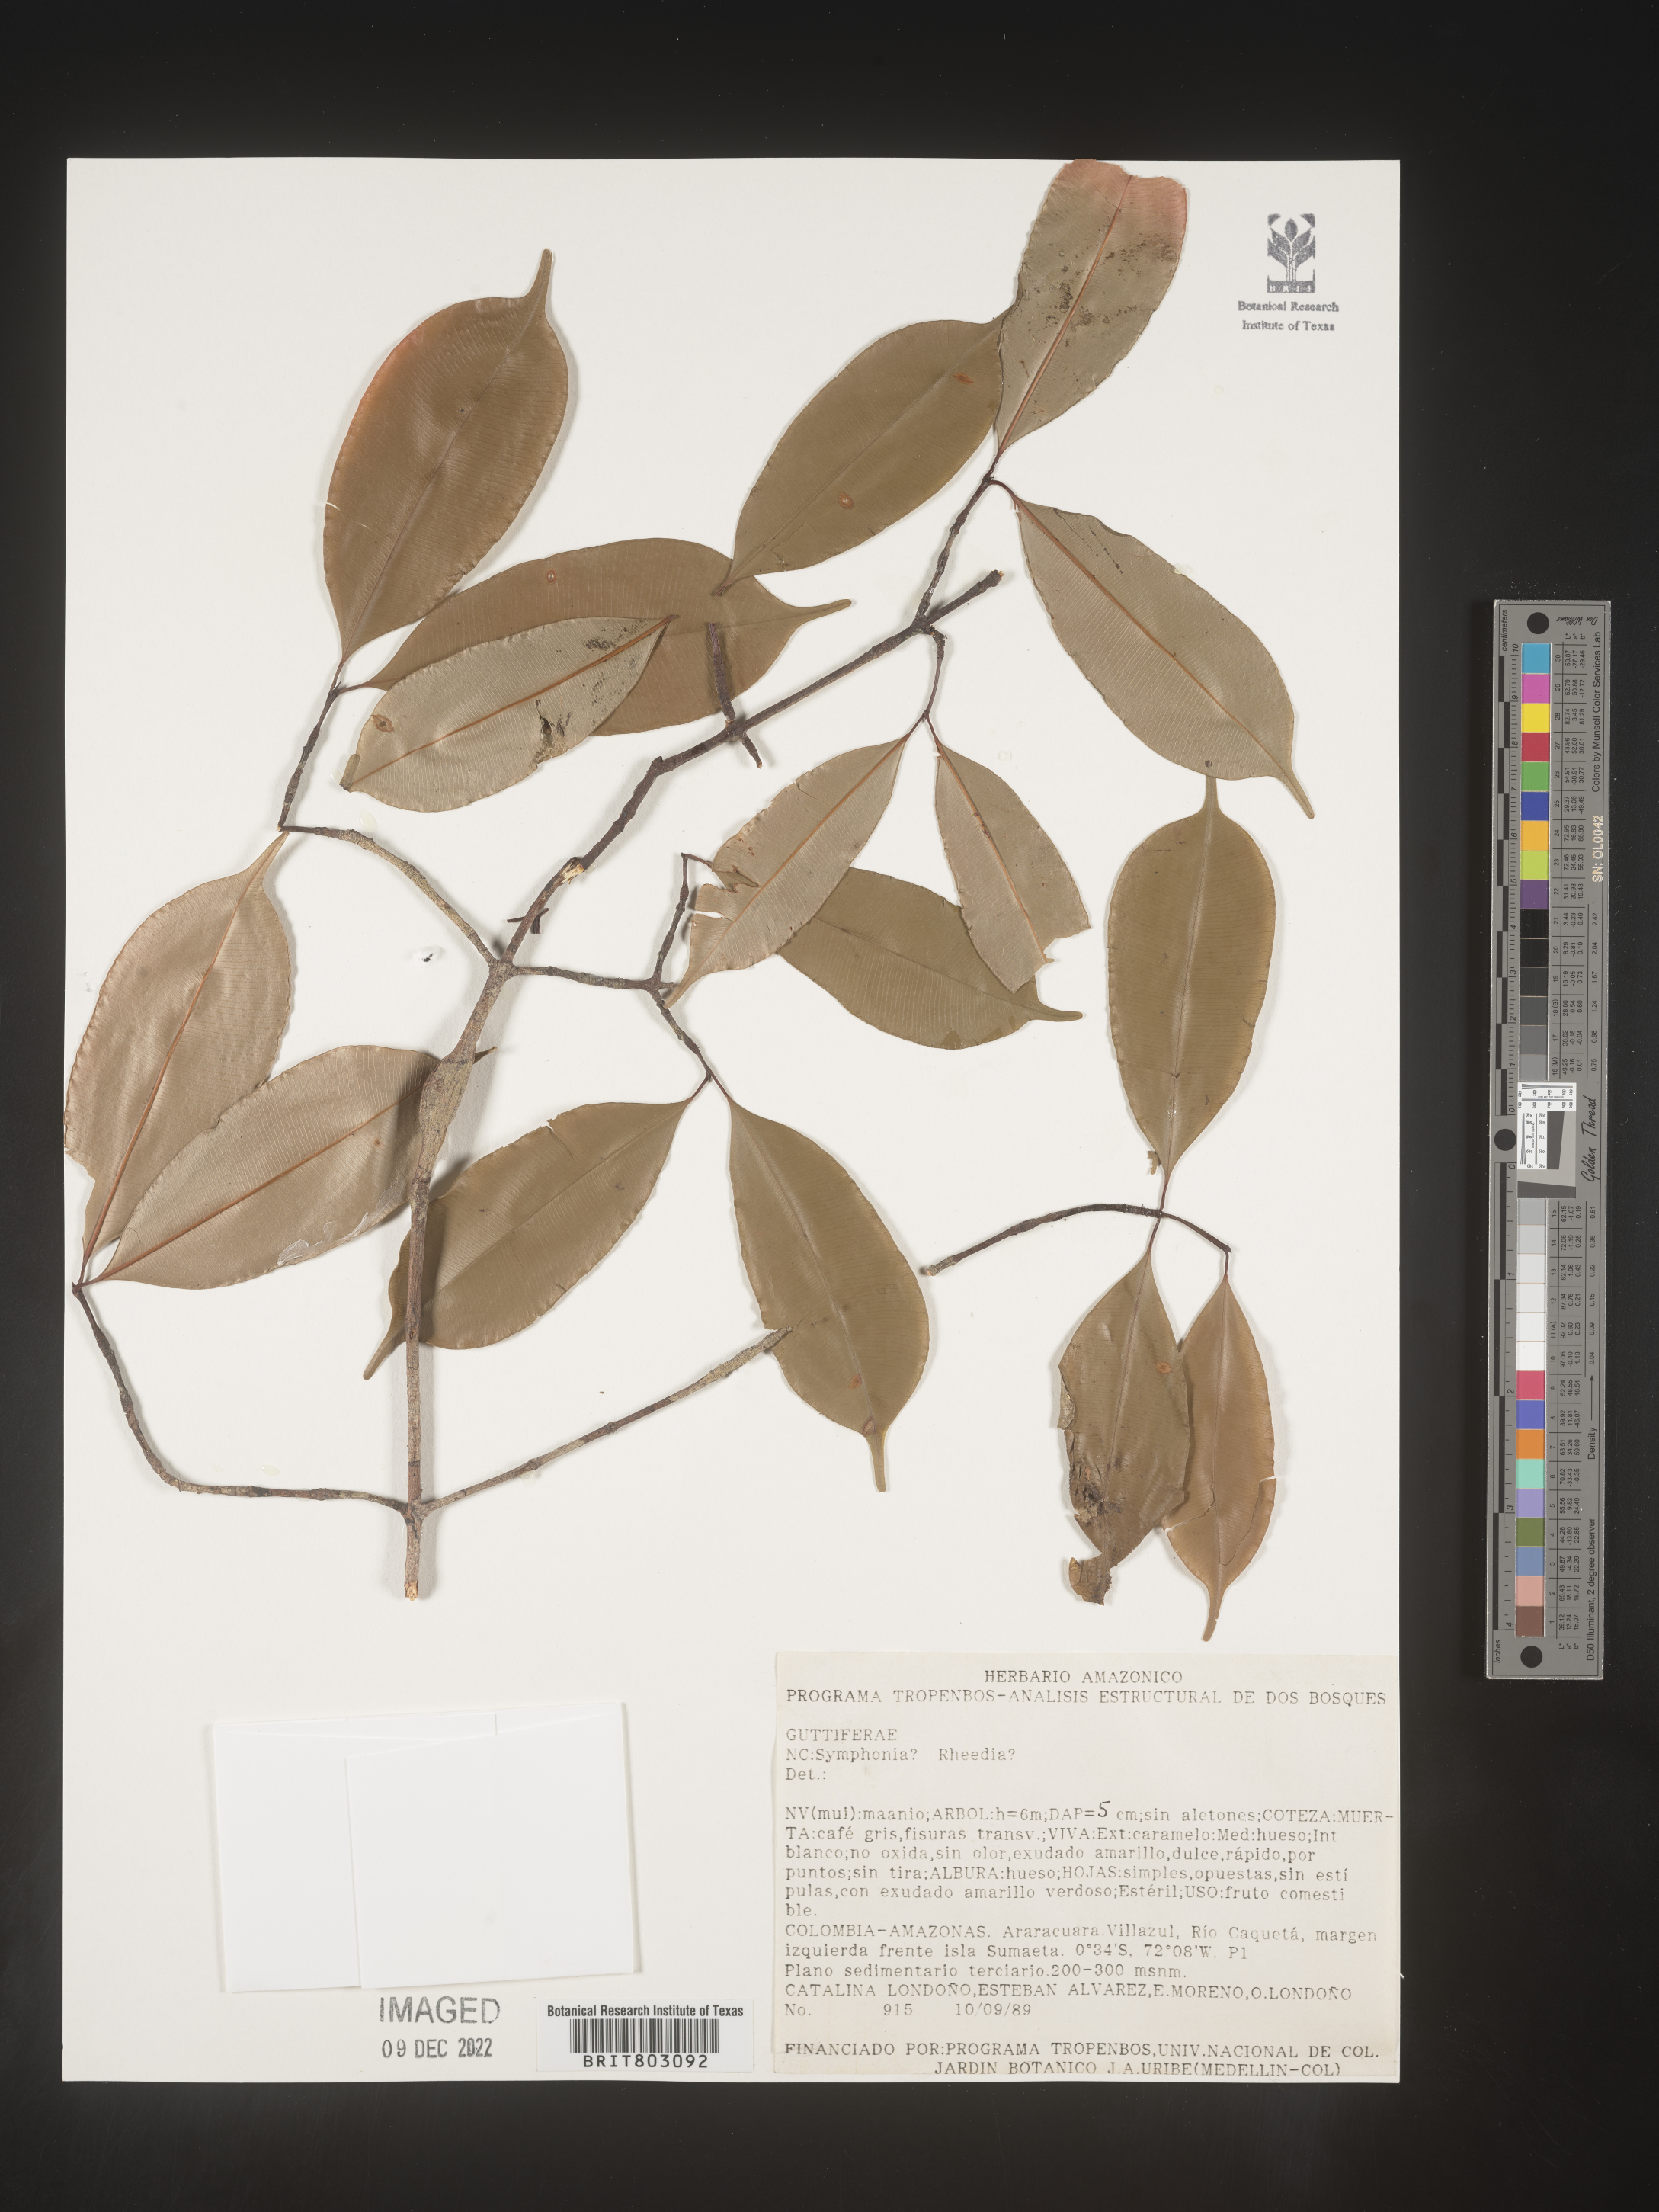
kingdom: Plantae
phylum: Tracheophyta
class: Magnoliopsida
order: Malpighiales
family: Clusiaceae
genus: Symphonia
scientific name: Symphonia
